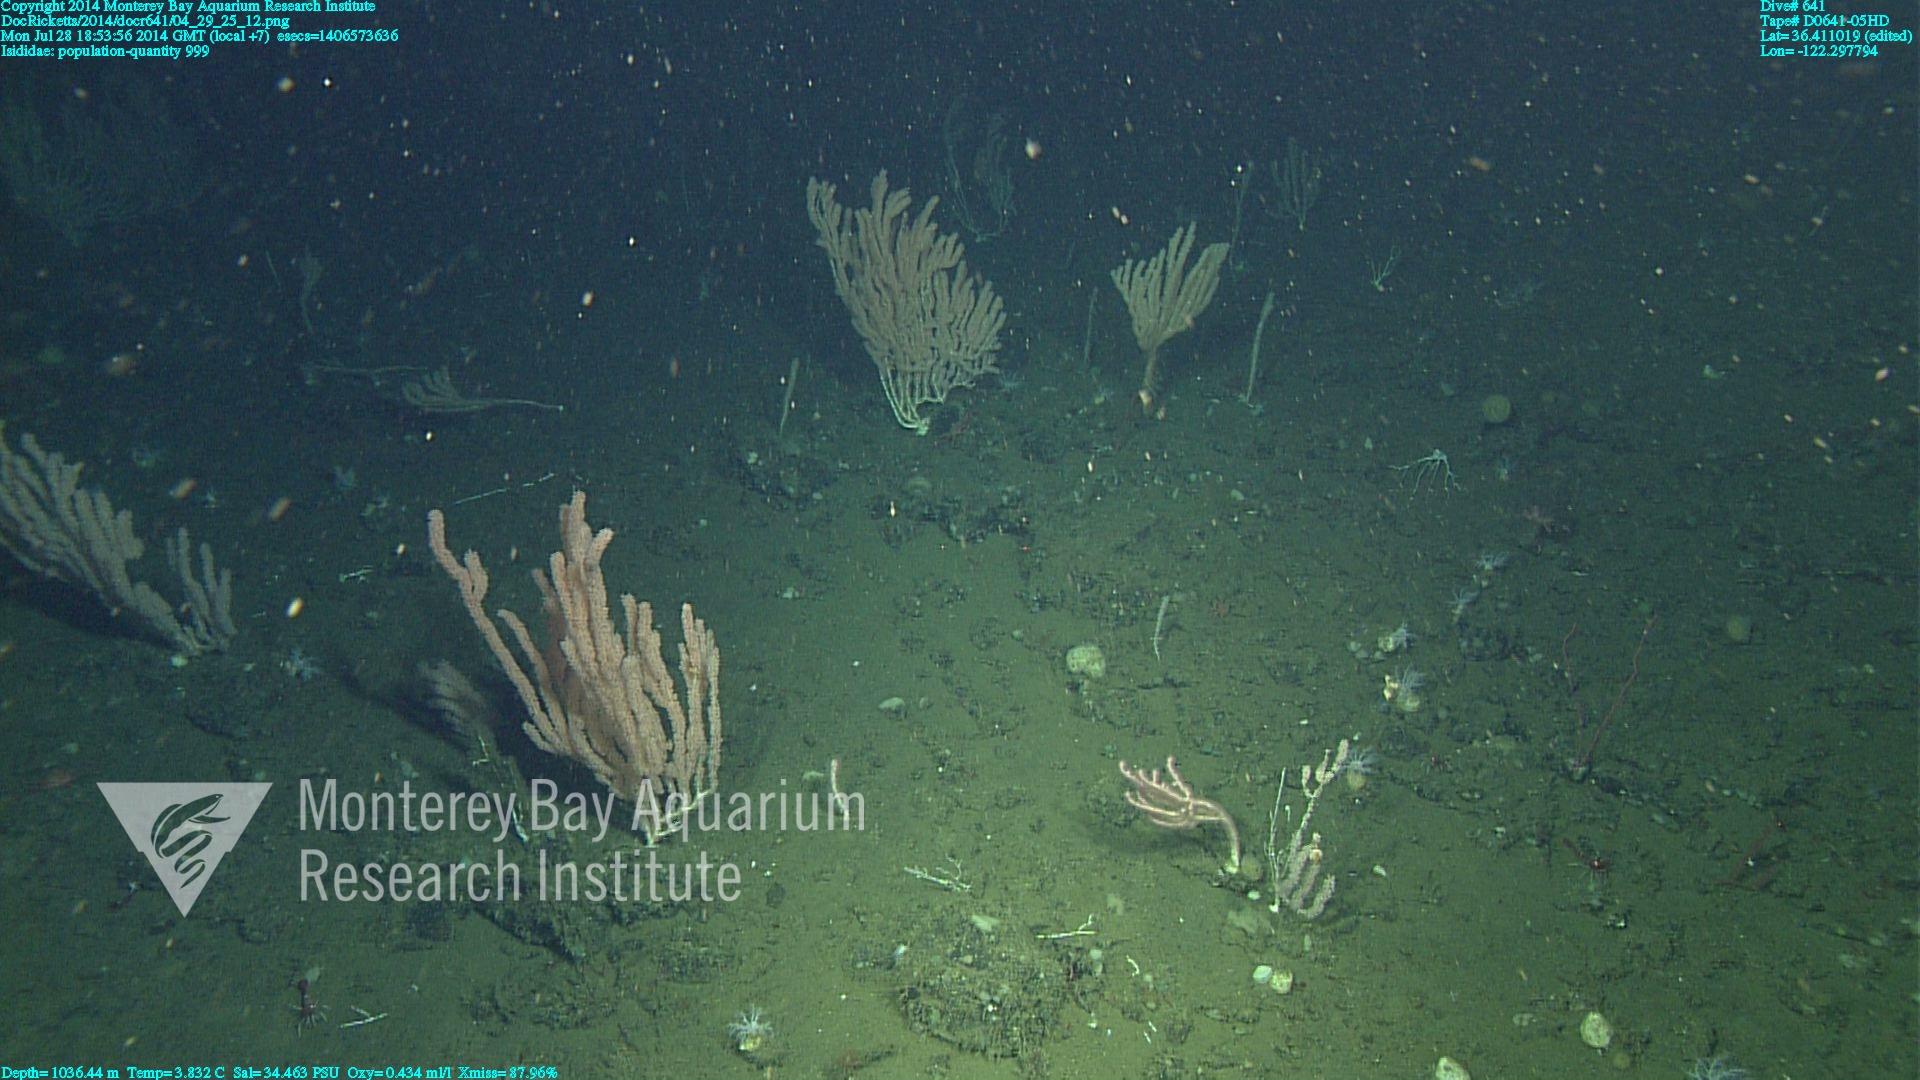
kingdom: Animalia
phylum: Cnidaria
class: Anthozoa
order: Scleralcyonacea
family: Keratoisididae
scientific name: Keratoisididae
